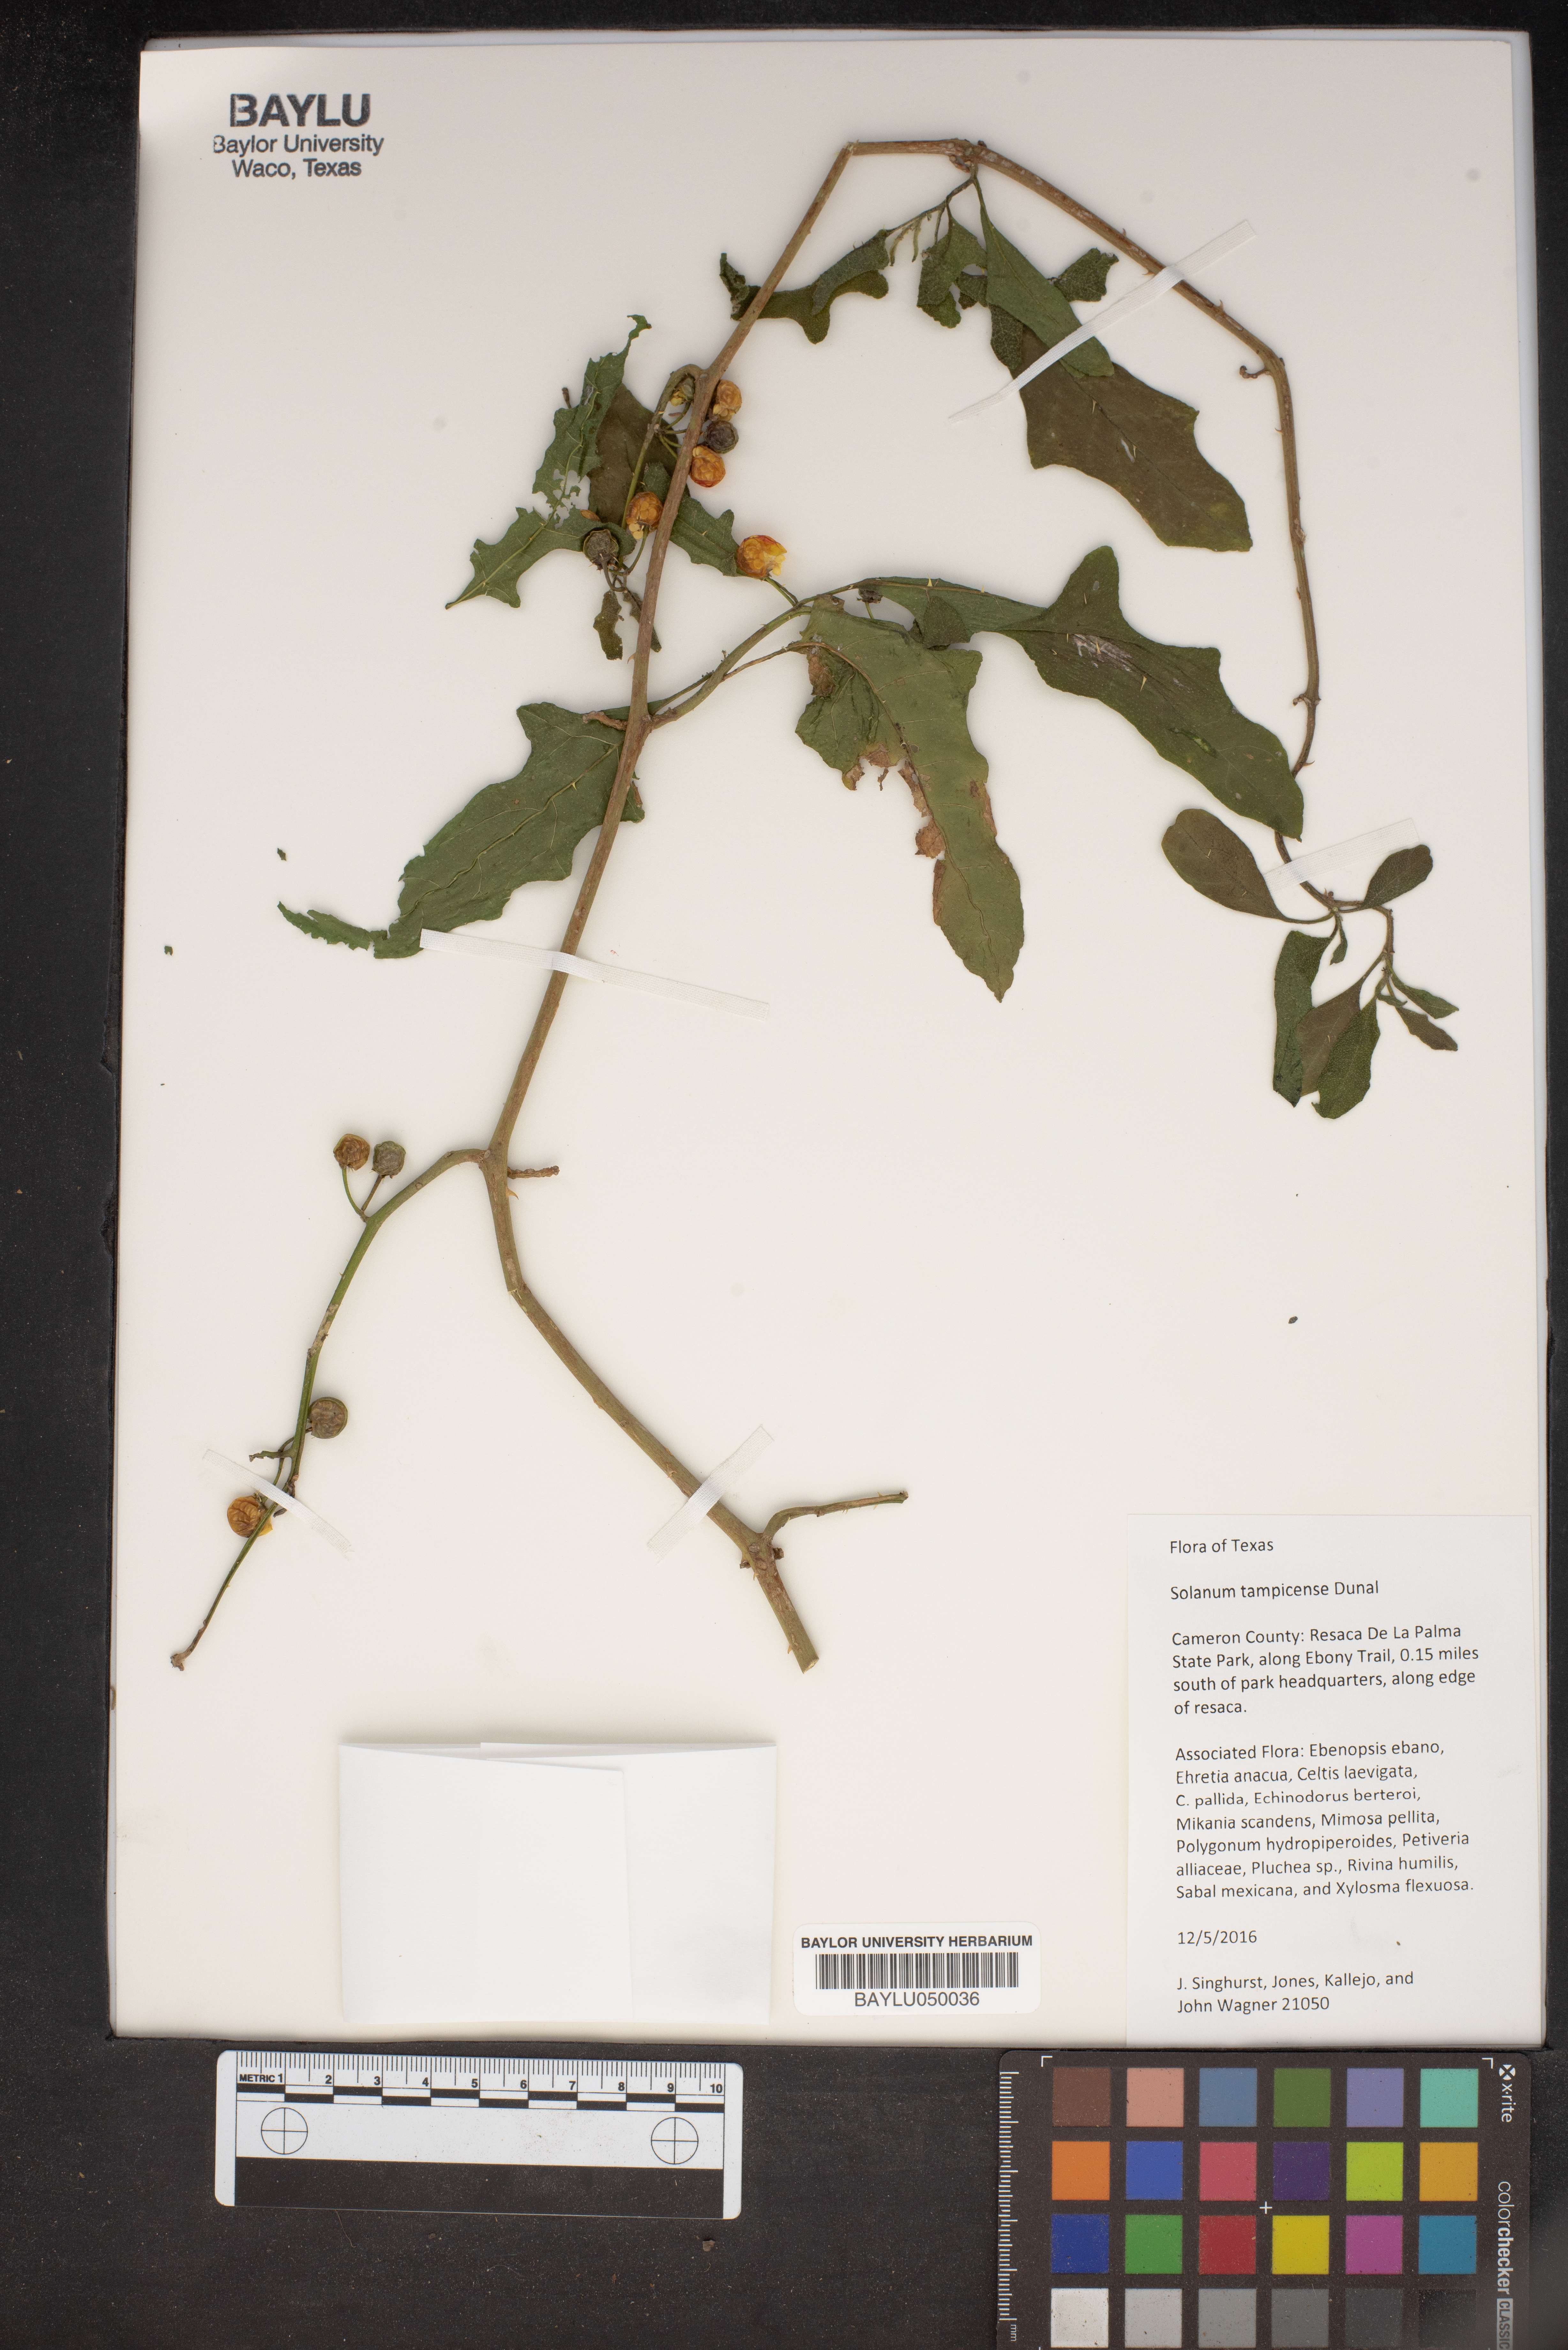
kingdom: Plantae
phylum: Tracheophyta
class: Magnoliopsida
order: Solanales
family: Solanaceae
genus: Solanum
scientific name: Solanum tampicense
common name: Scrambling nightshade
